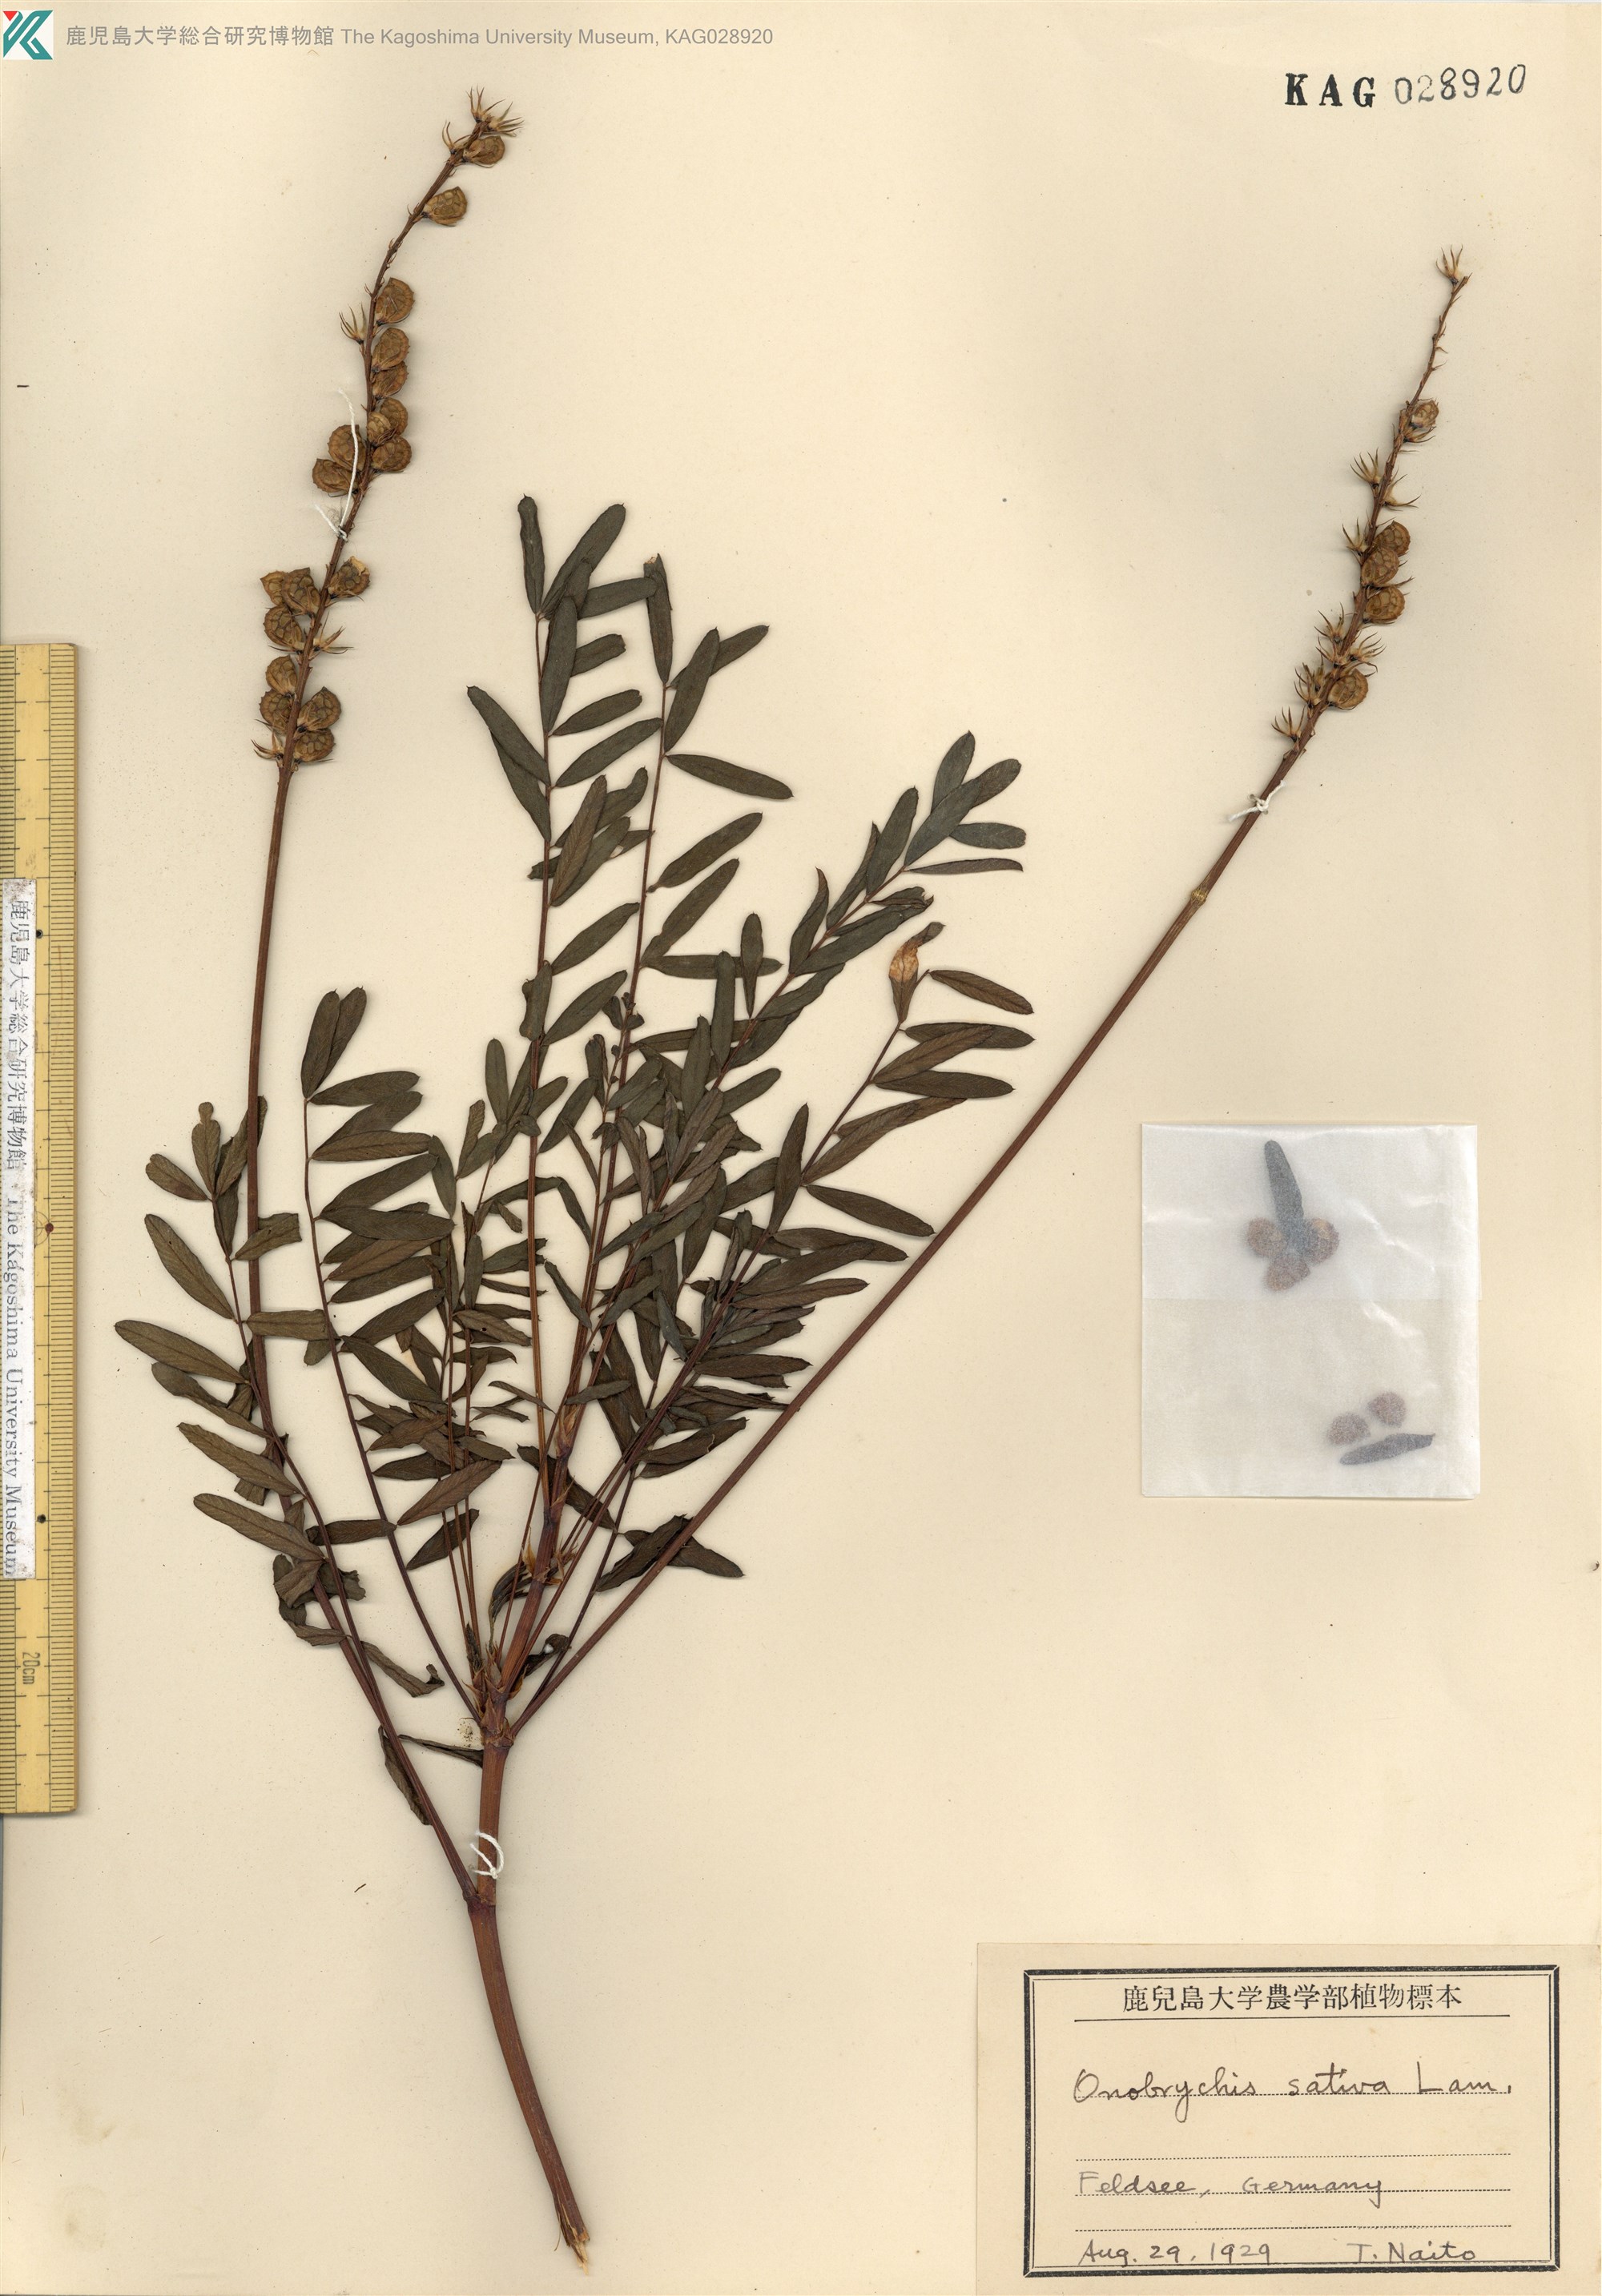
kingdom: Plantae
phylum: Tracheophyta
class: Magnoliopsida
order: Fabales
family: Fabaceae
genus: Onobrychis
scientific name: Onobrychis
